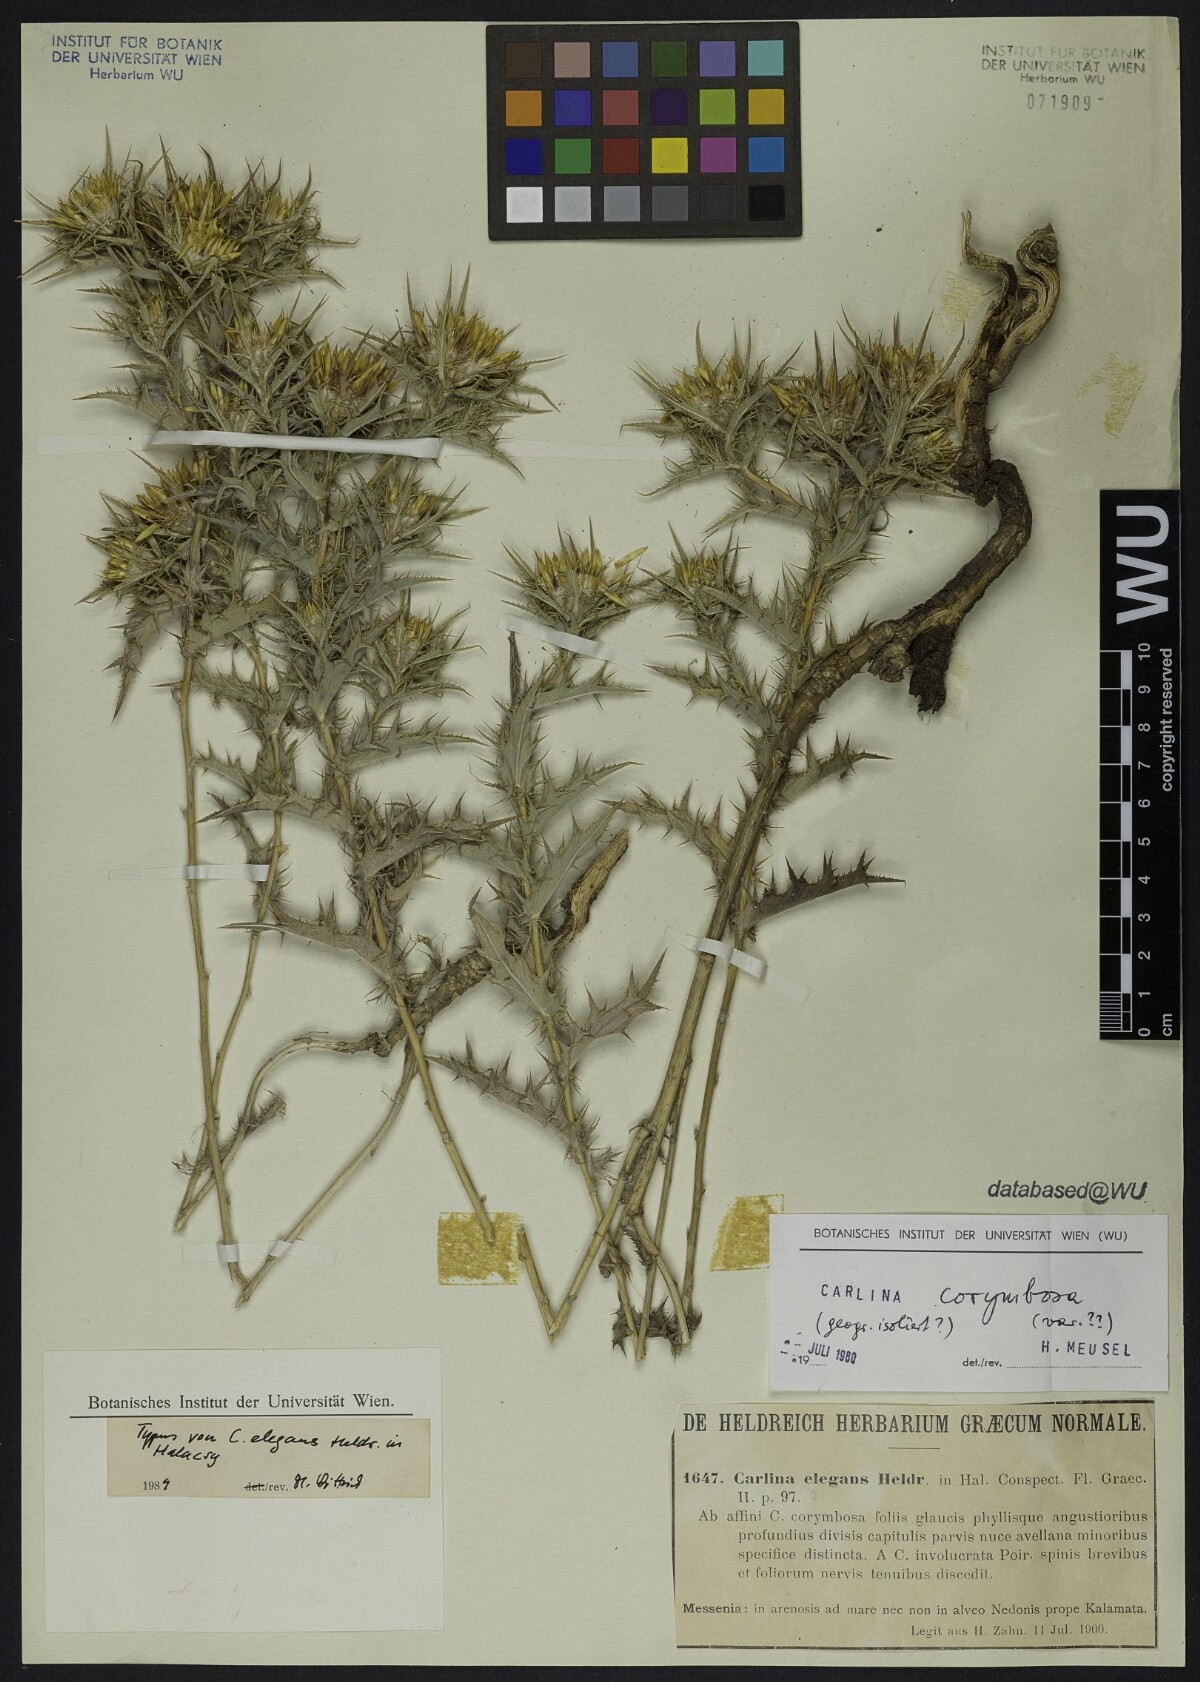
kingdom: Plantae
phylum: Tracheophyta
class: Magnoliopsida
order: Asterales
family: Asteraceae
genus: Carlina
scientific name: Carlina corymbosa
